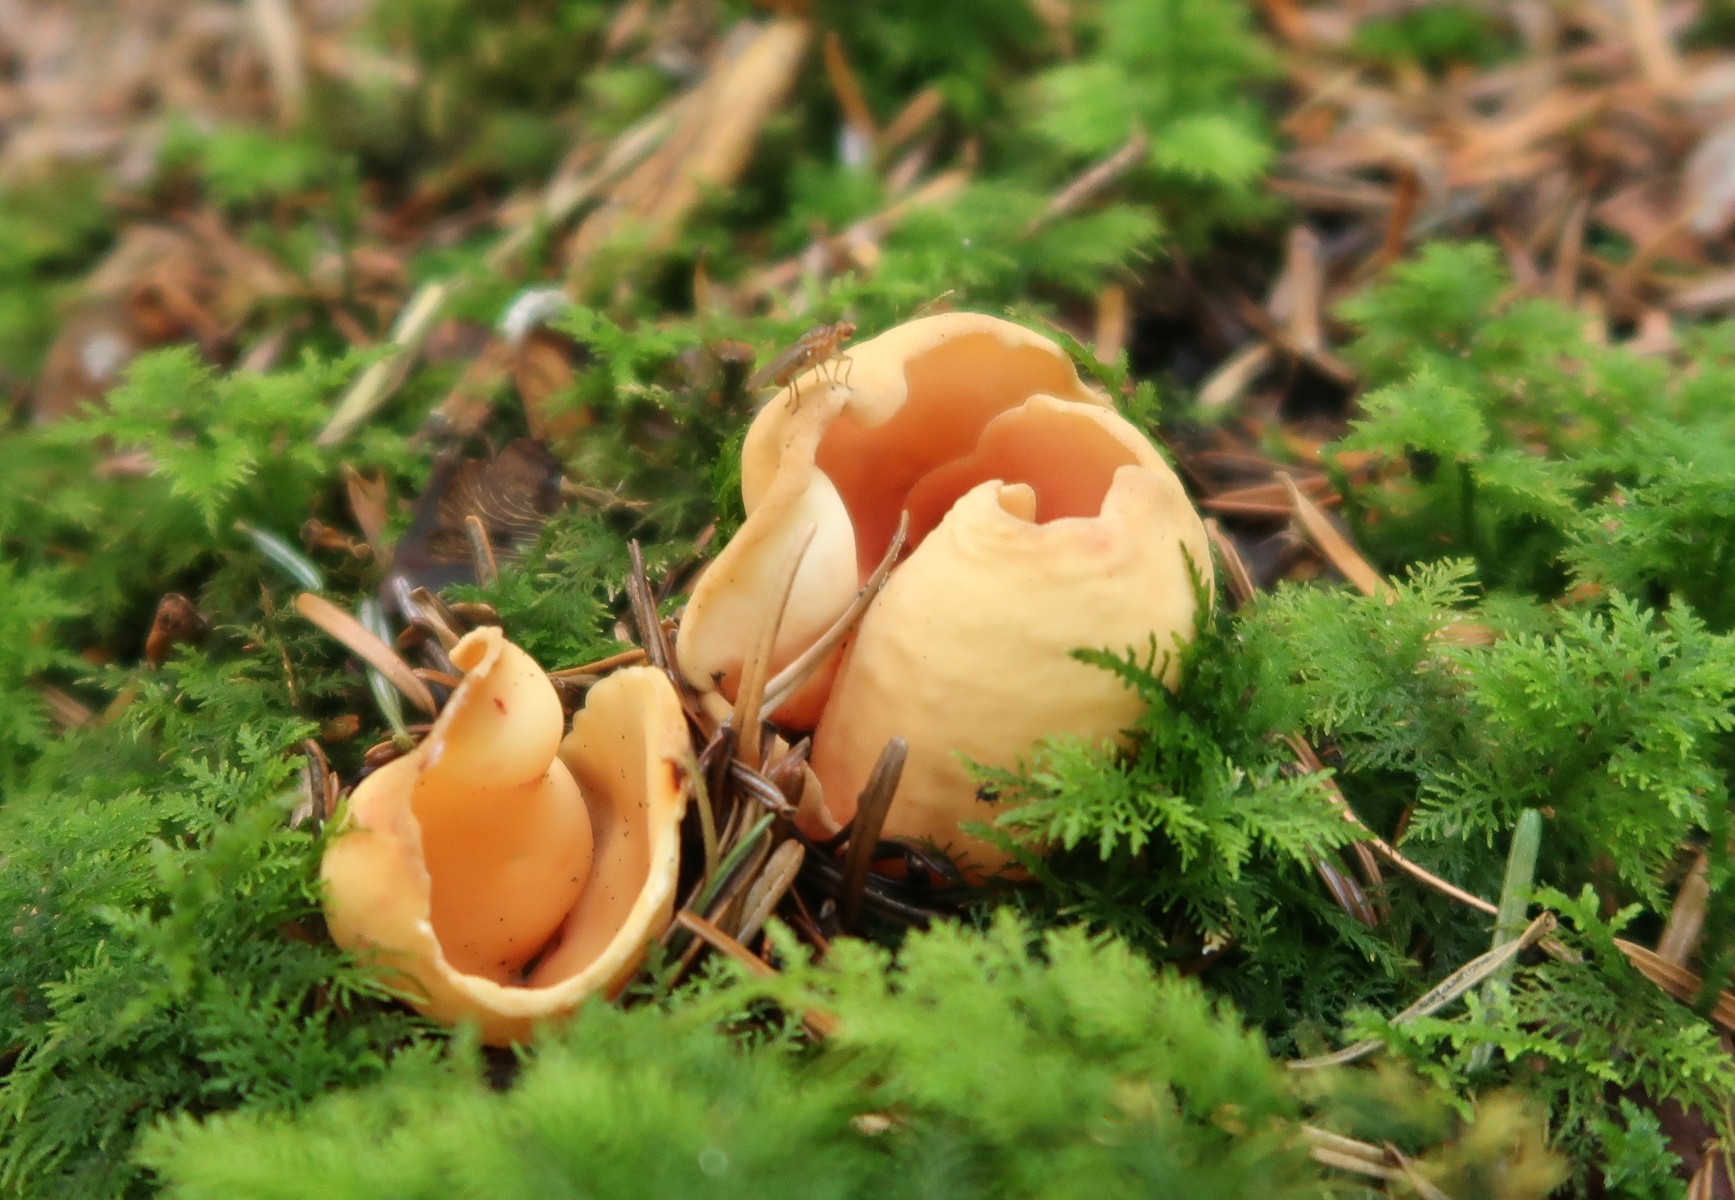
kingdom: Fungi
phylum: Ascomycota
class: Pezizomycetes
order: Pezizales
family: Otideaceae
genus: Otidea
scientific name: Otidea onotica
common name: æsel-ørebæger
